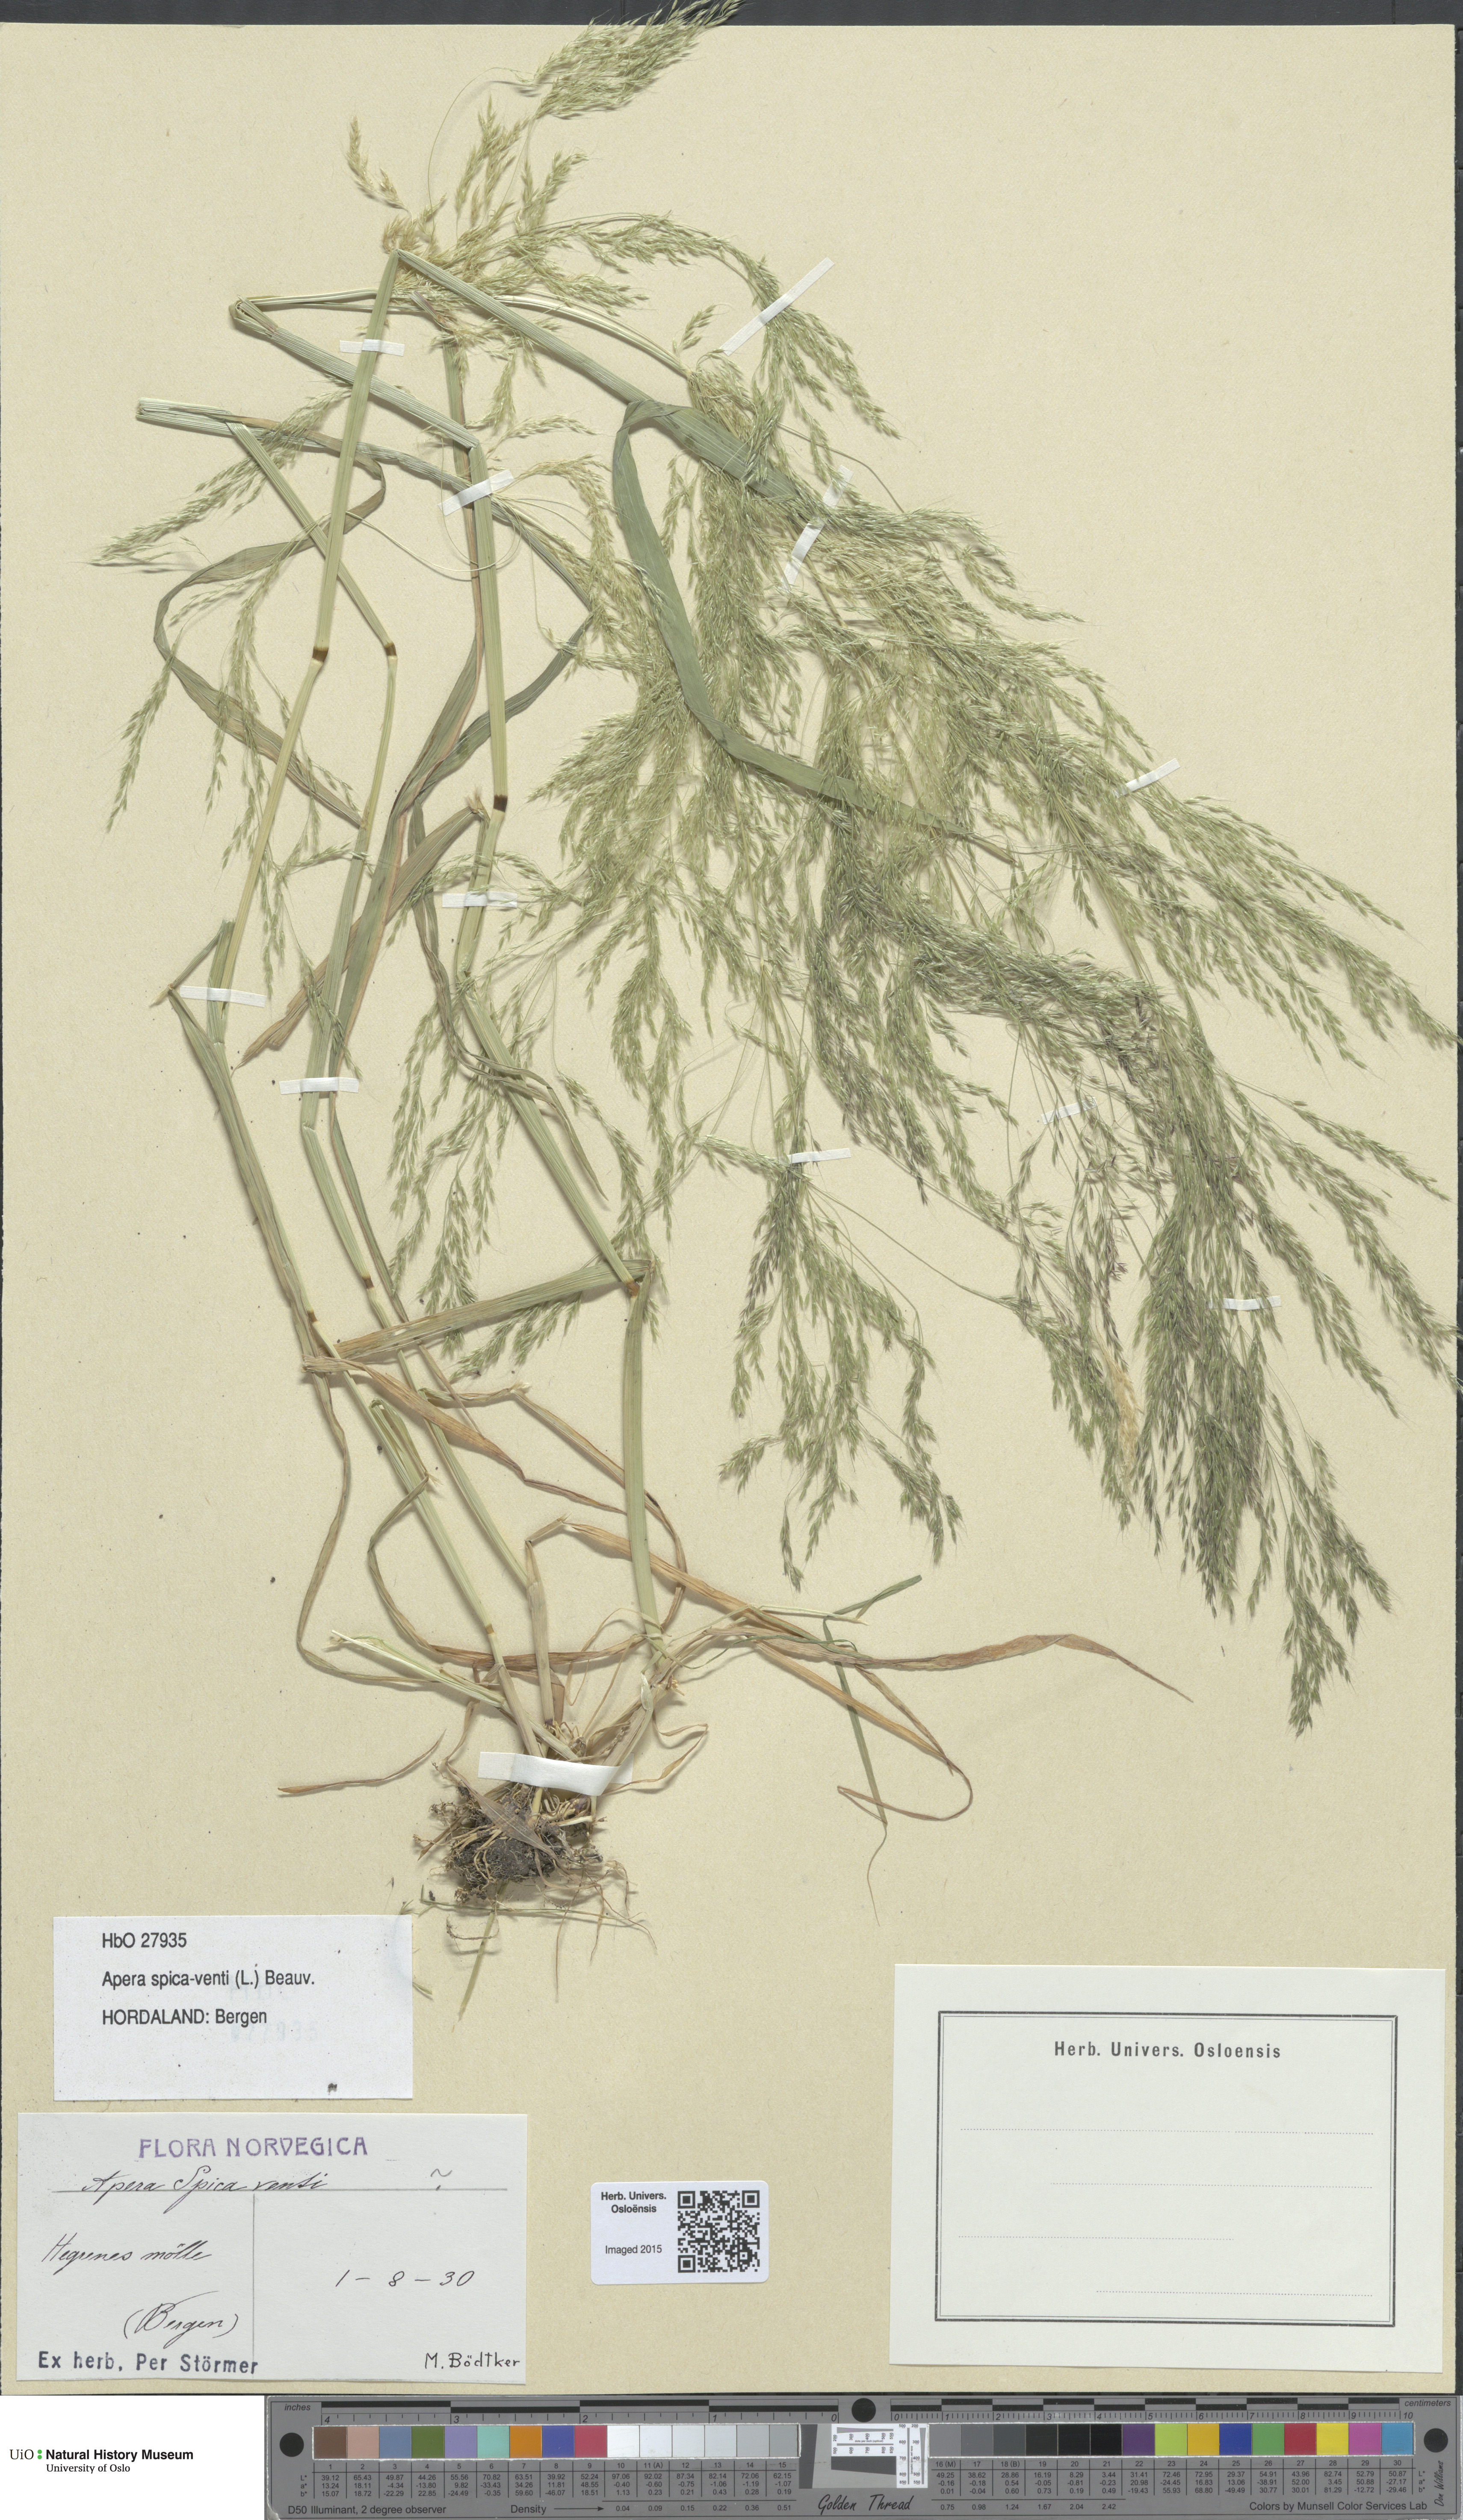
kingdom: Plantae
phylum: Tracheophyta
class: Liliopsida
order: Poales
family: Poaceae
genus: Apera
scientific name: Apera spica-venti
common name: Loose silky-bent
